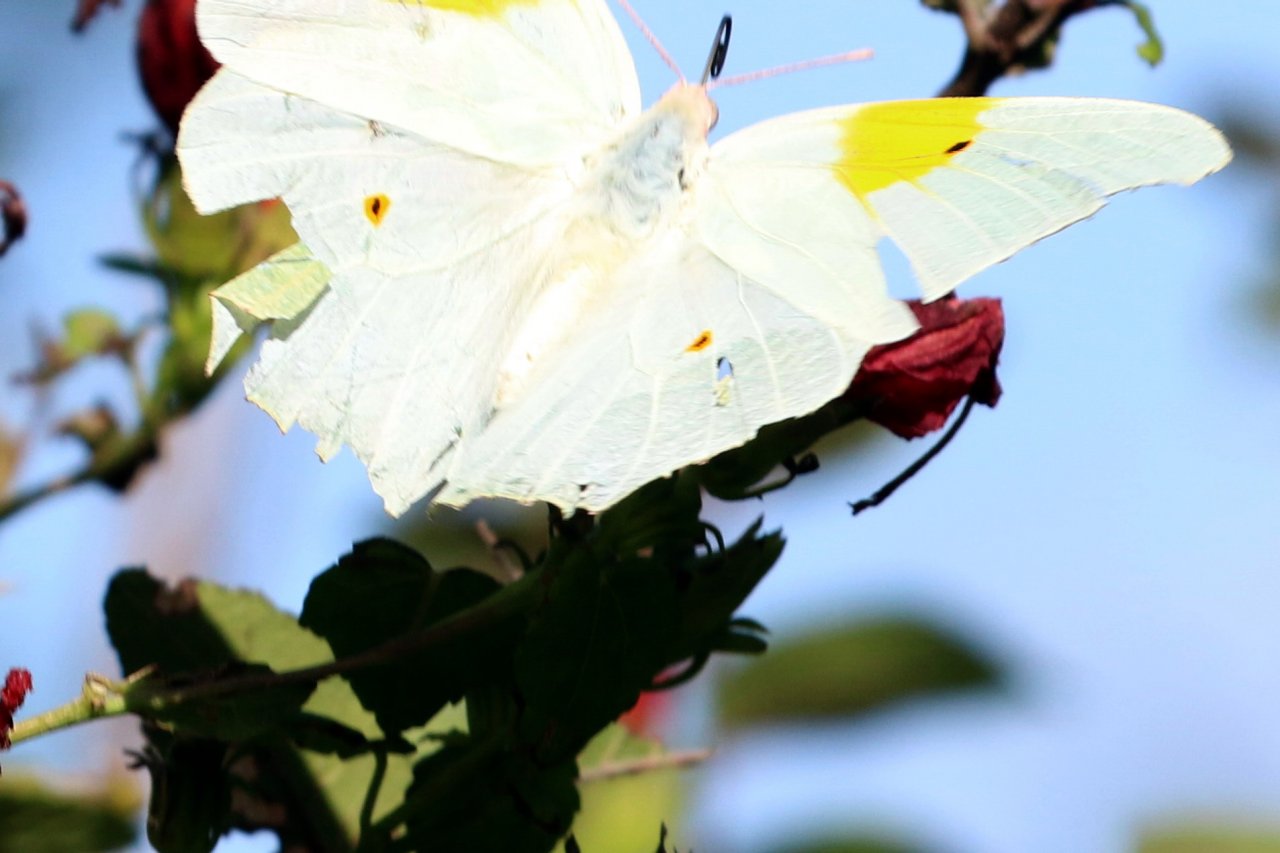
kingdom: Animalia
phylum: Arthropoda
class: Insecta
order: Lepidoptera
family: Pieridae
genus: Anteos
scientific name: Anteos maerula
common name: Yellow Angled-Sulphur
